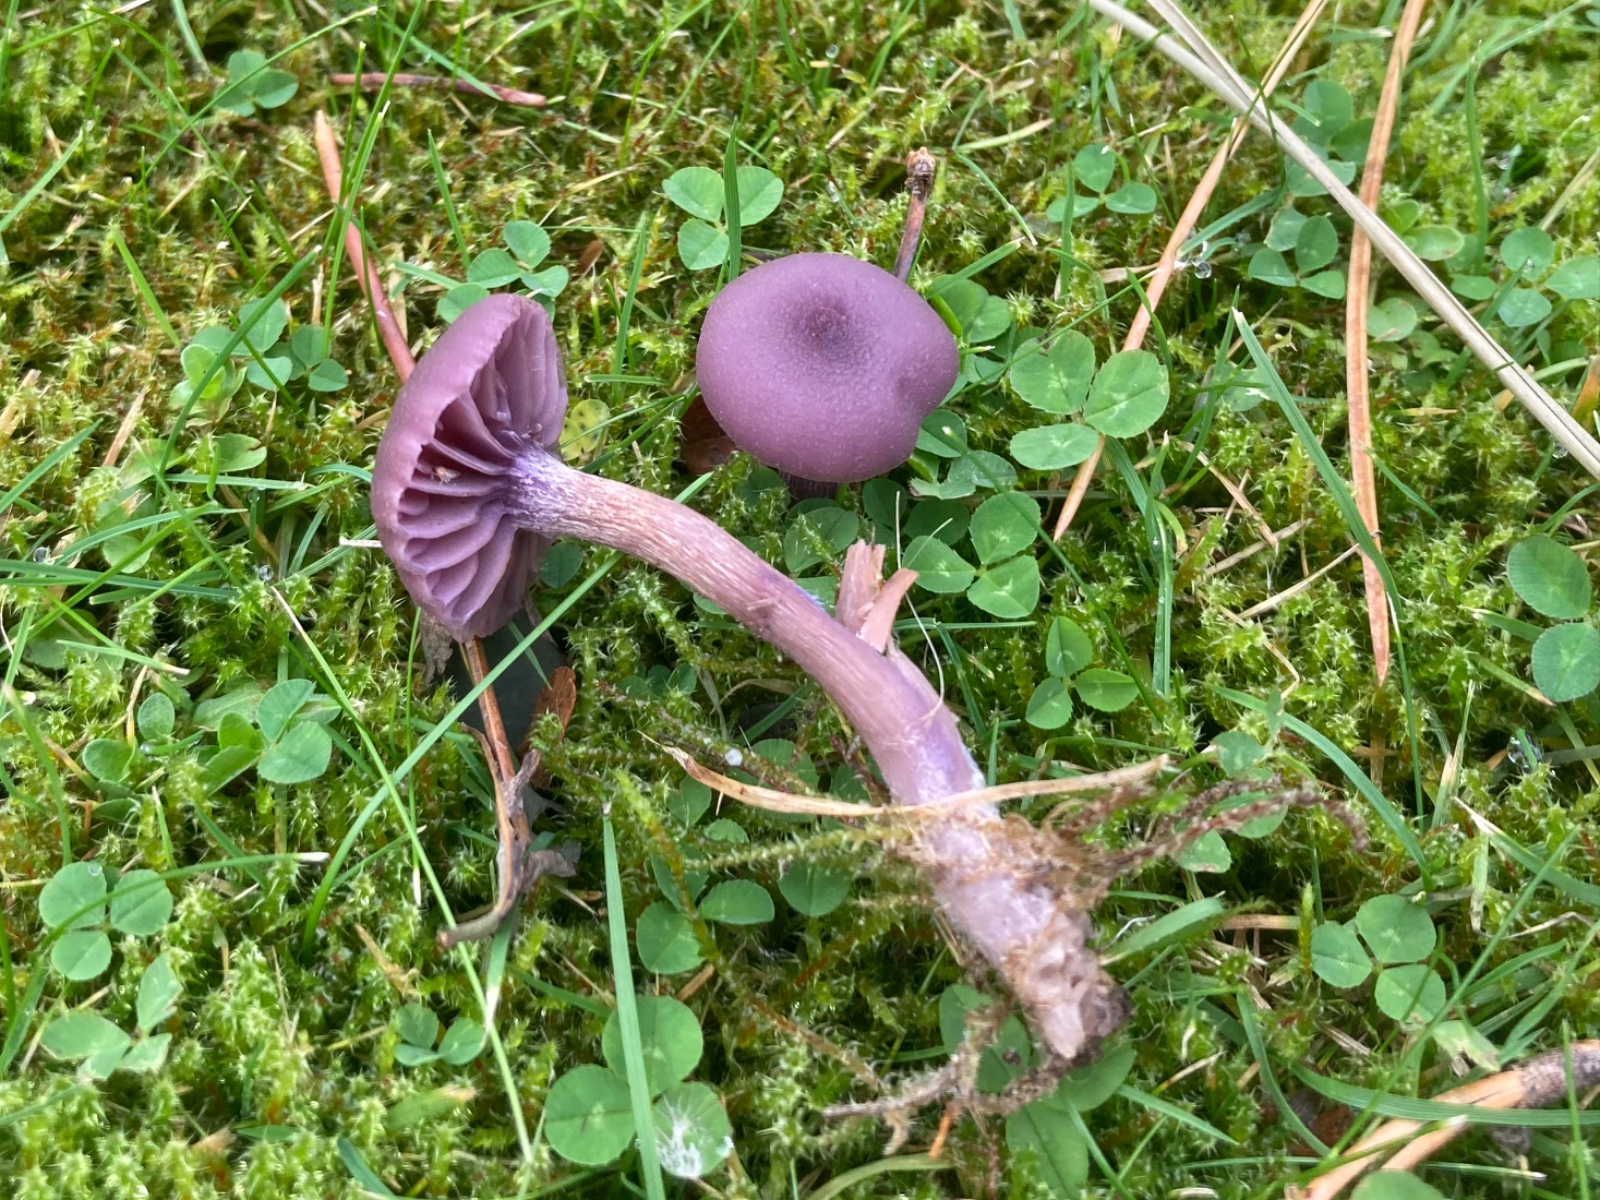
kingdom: Fungi
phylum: Basidiomycota
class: Agaricomycetes
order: Agaricales
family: Hydnangiaceae
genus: Laccaria
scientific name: Laccaria amethystina
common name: violet ametysthat
